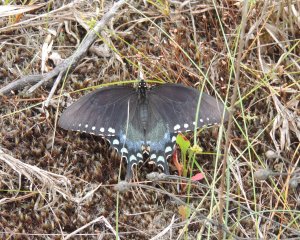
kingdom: Animalia
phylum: Arthropoda
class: Insecta
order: Lepidoptera
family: Papilionidae
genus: Pterourus
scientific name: Pterourus troilus
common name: Spicebush Swallowtail
